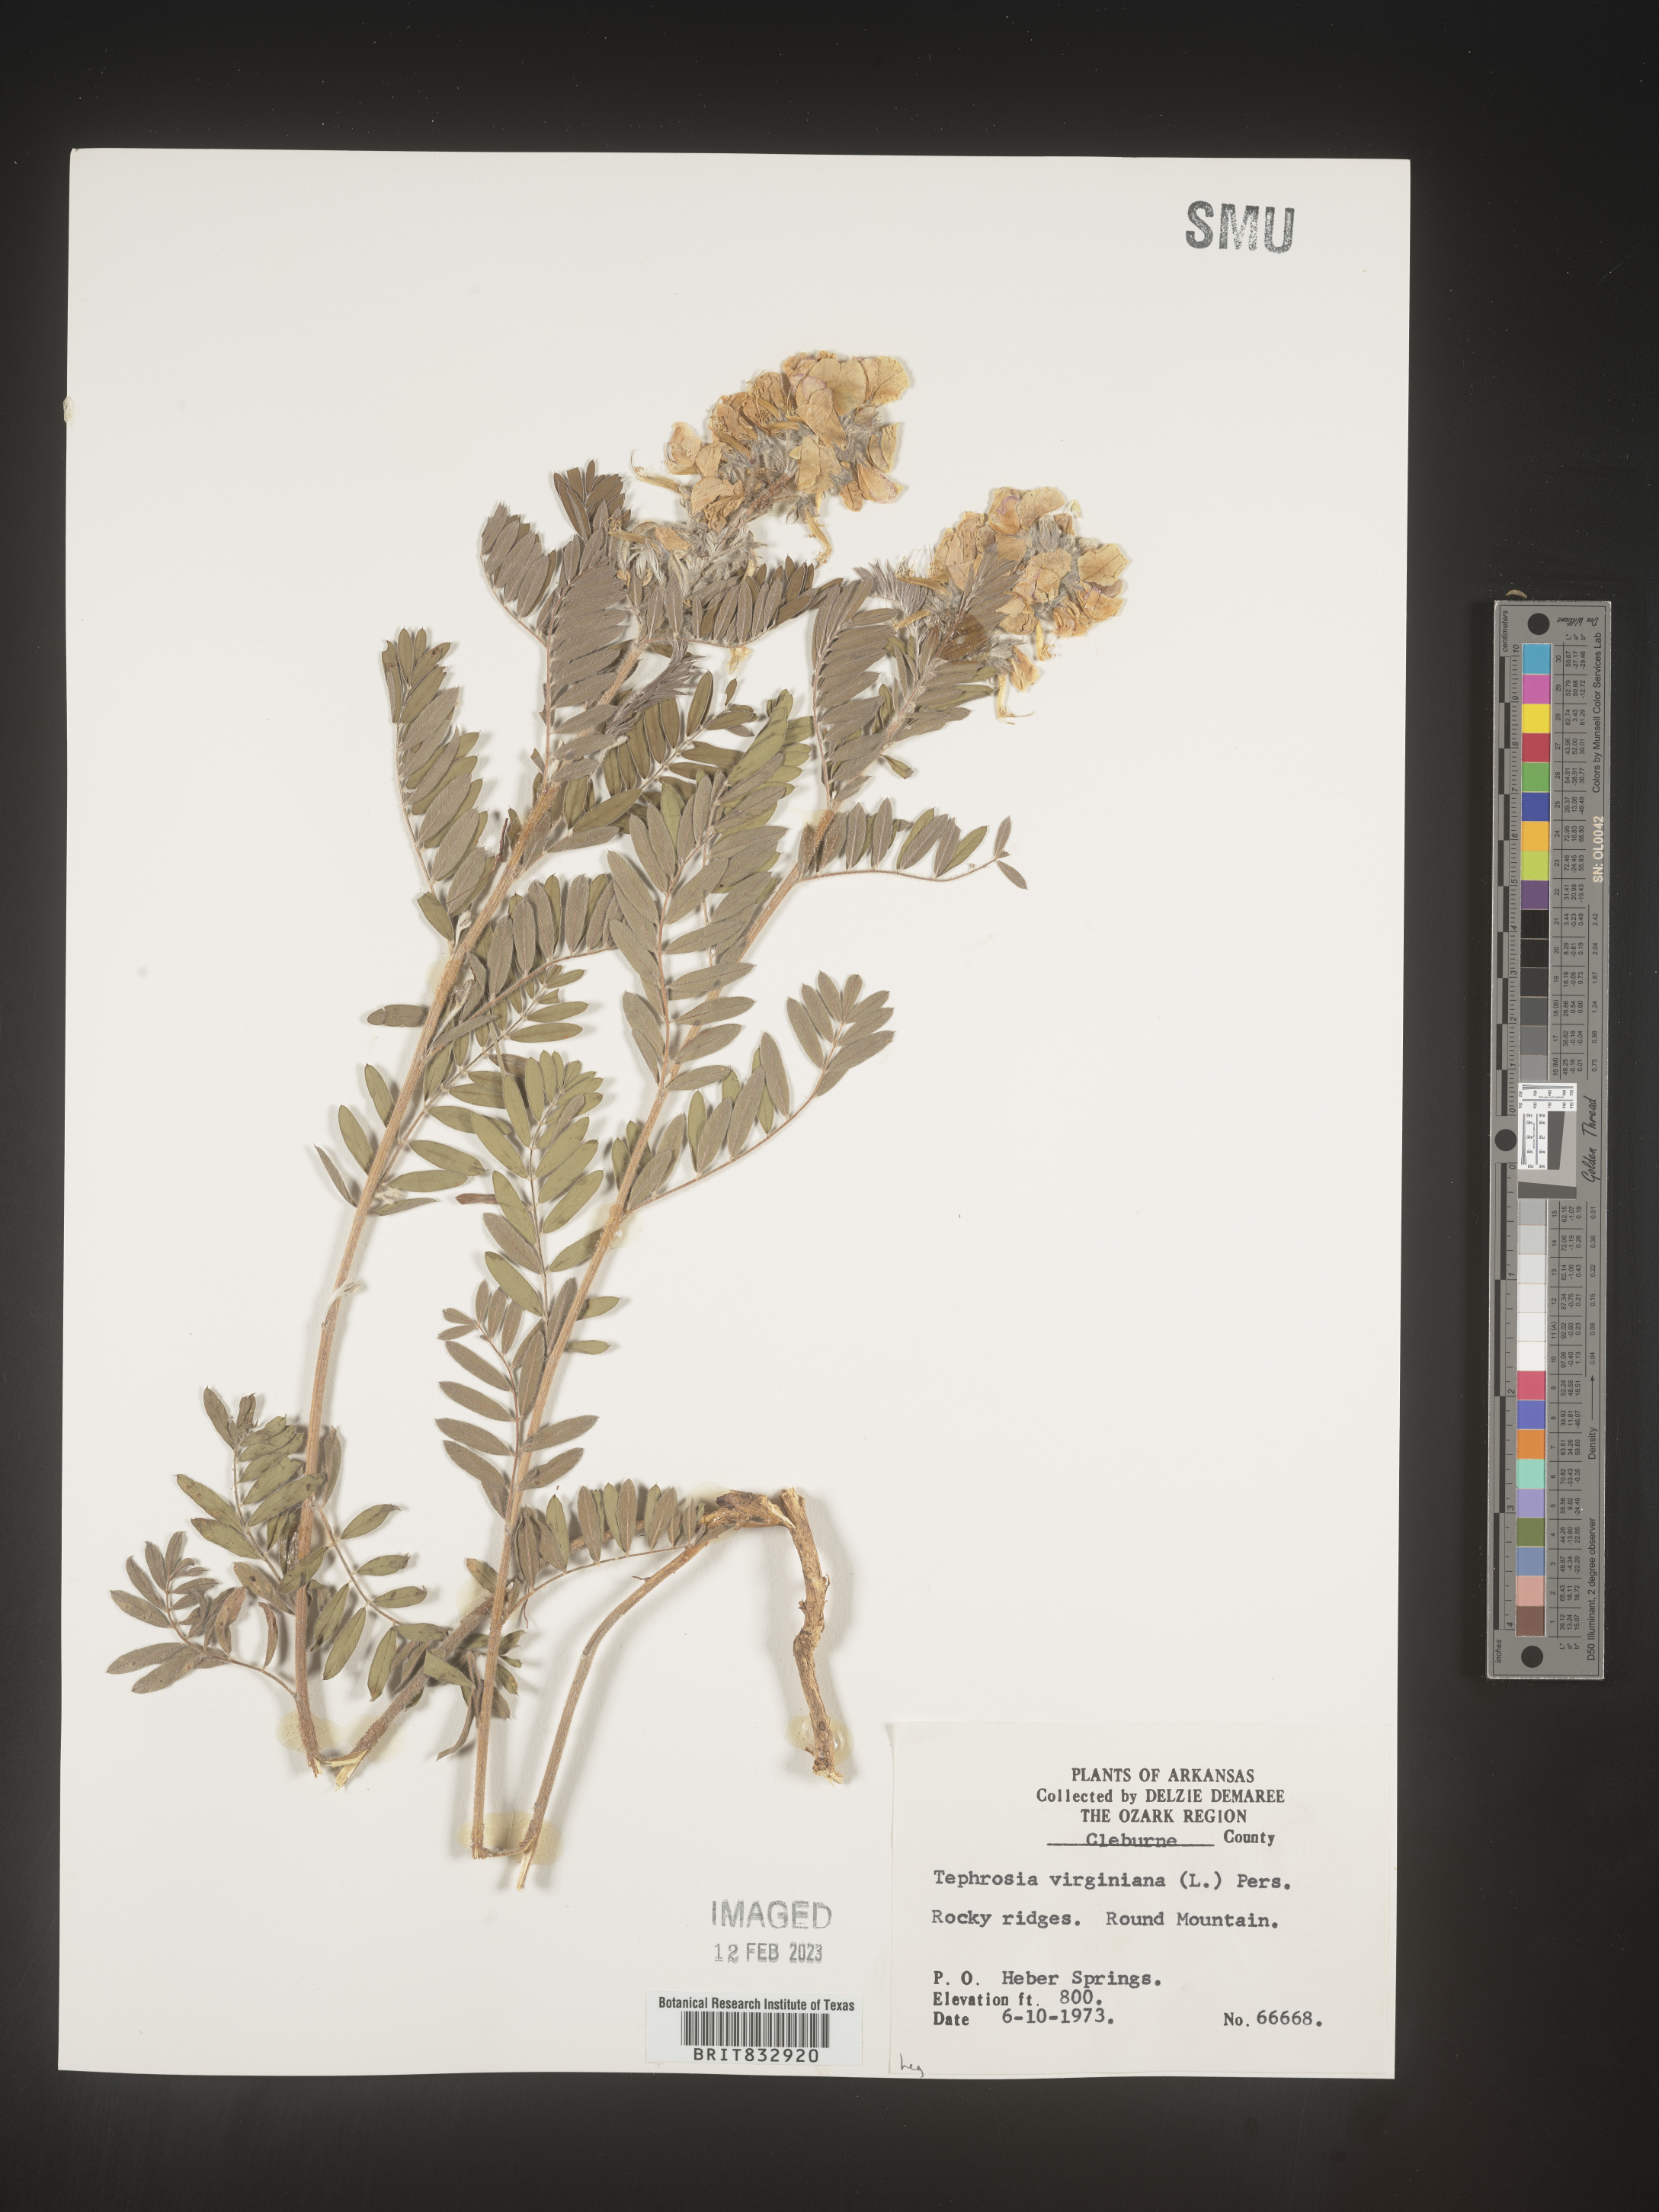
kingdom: Plantae
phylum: Tracheophyta
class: Magnoliopsida
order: Fabales
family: Fabaceae
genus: Tephrosia
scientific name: Tephrosia virginiana
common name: Rabbit-pea
